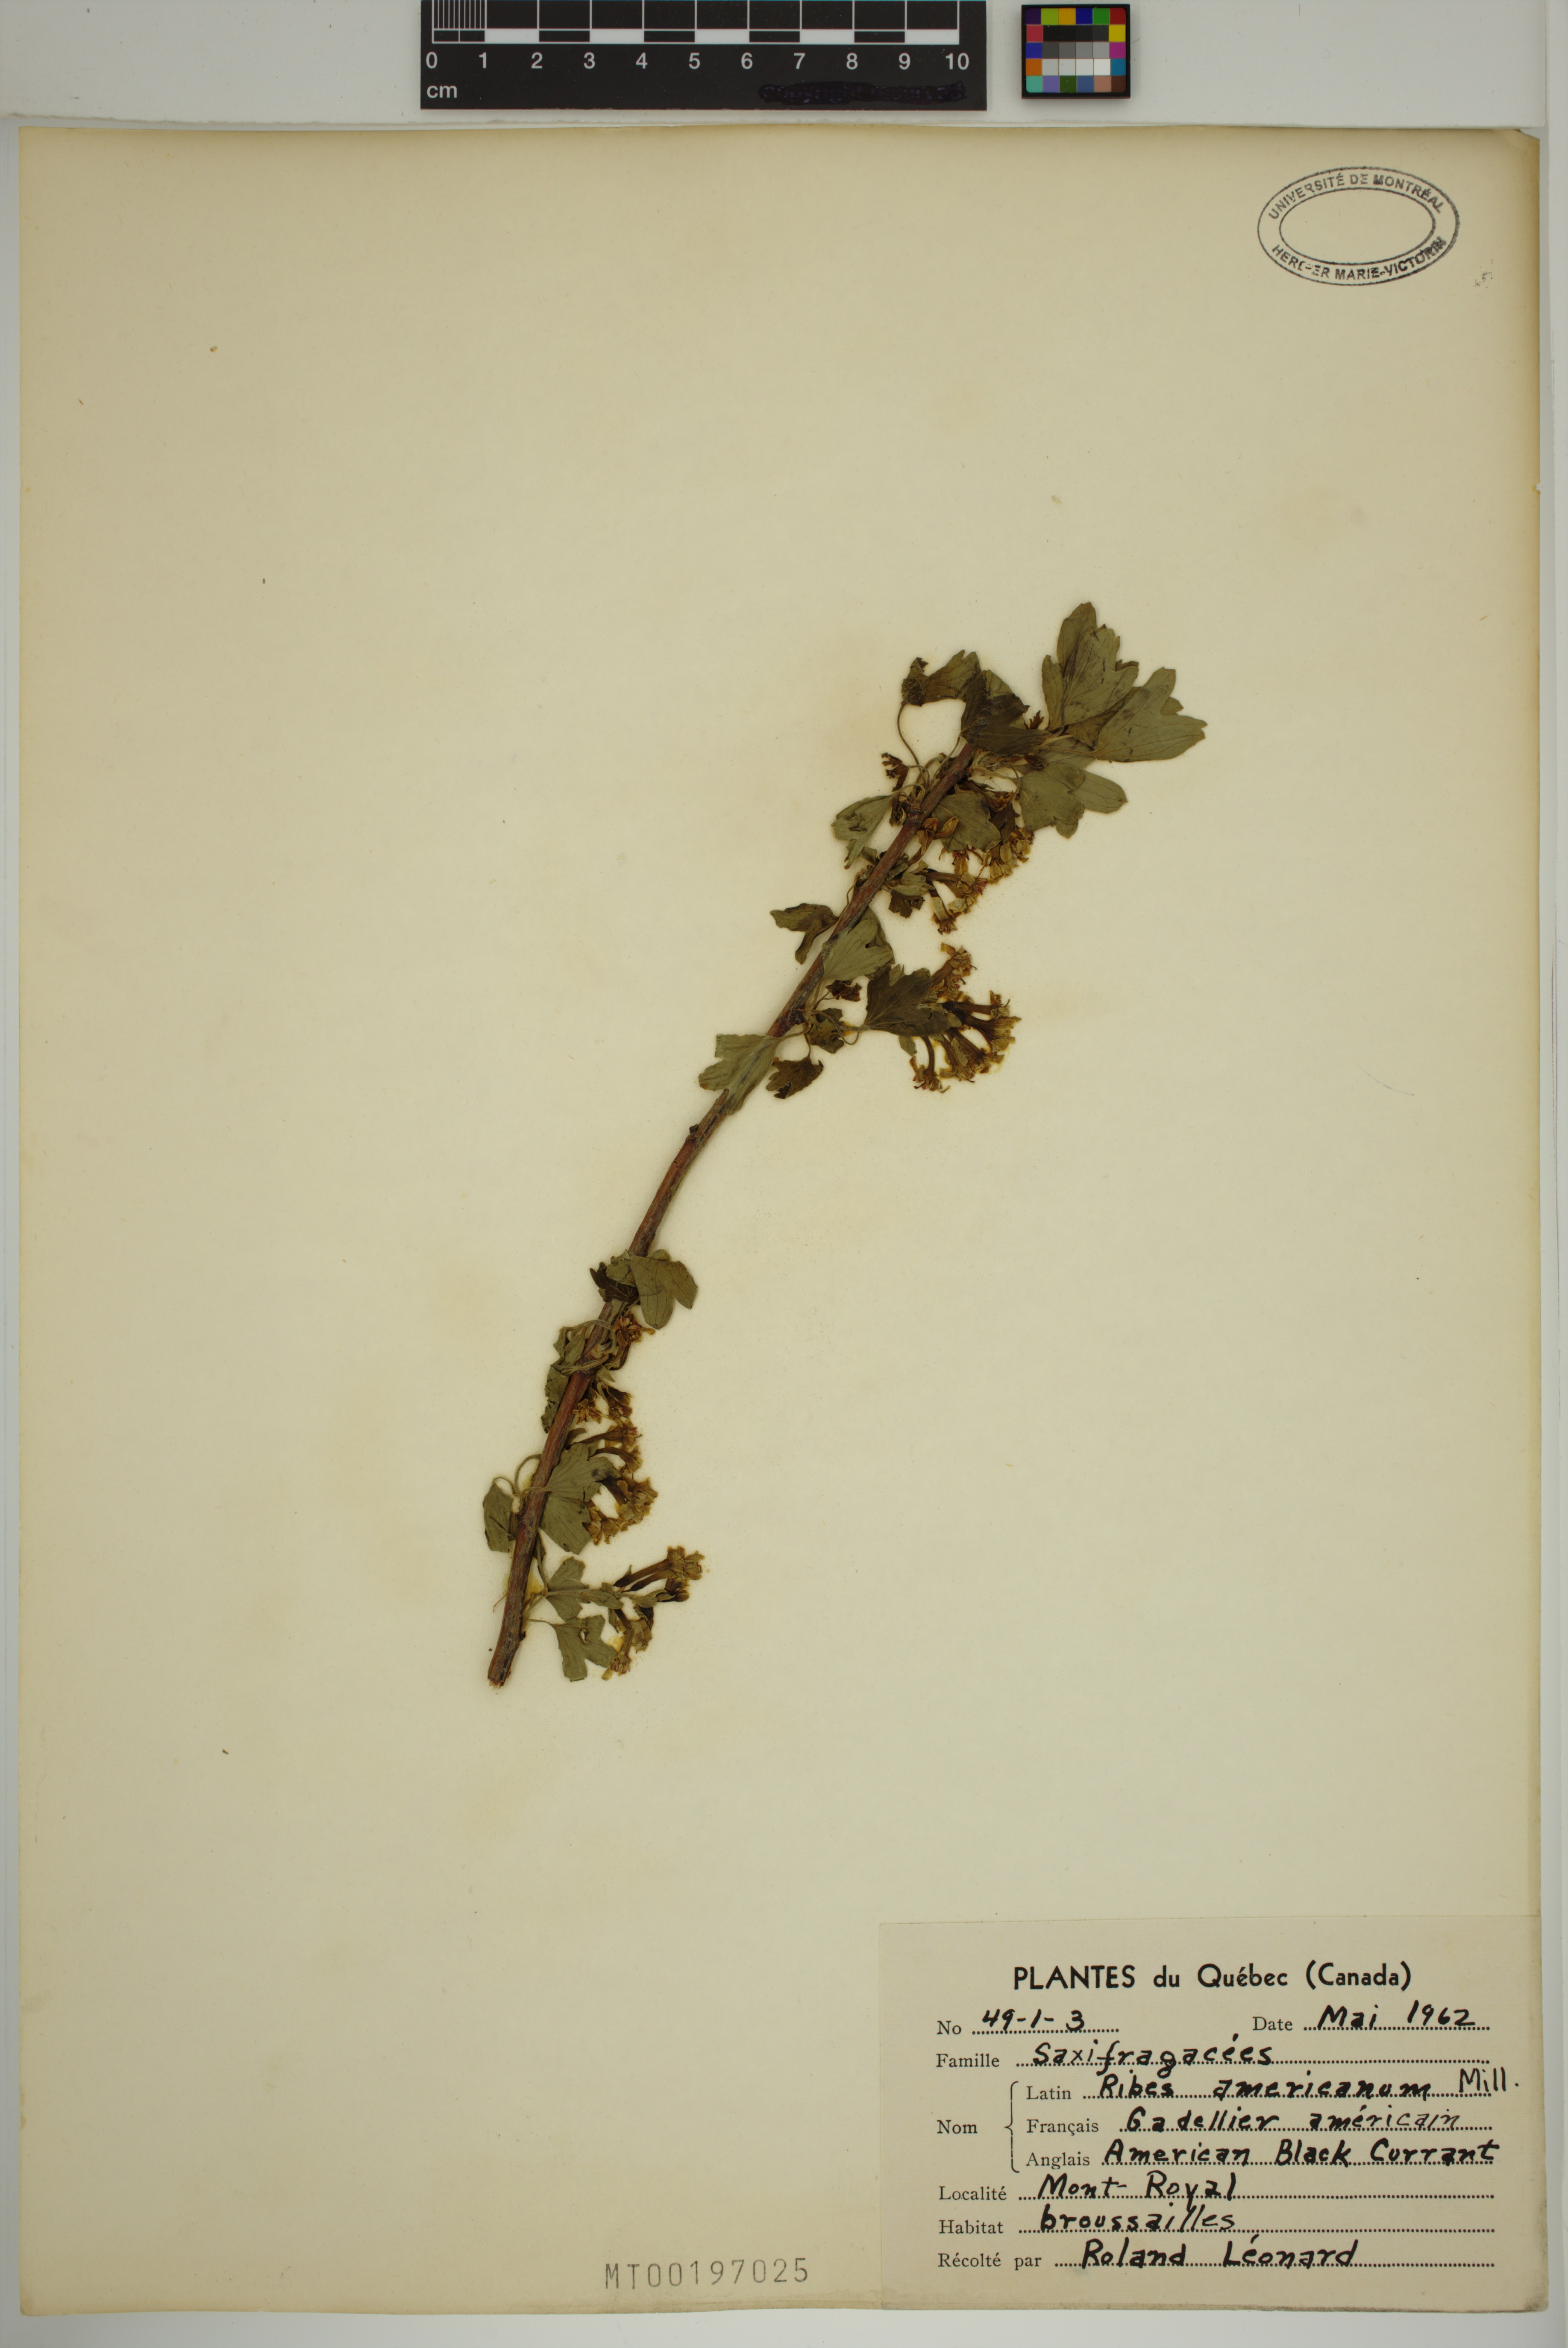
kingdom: Plantae
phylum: Tracheophyta
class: Magnoliopsida
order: Saxifragales
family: Grossulariaceae
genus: Ribes
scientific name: Ribes americanum
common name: American black currant
